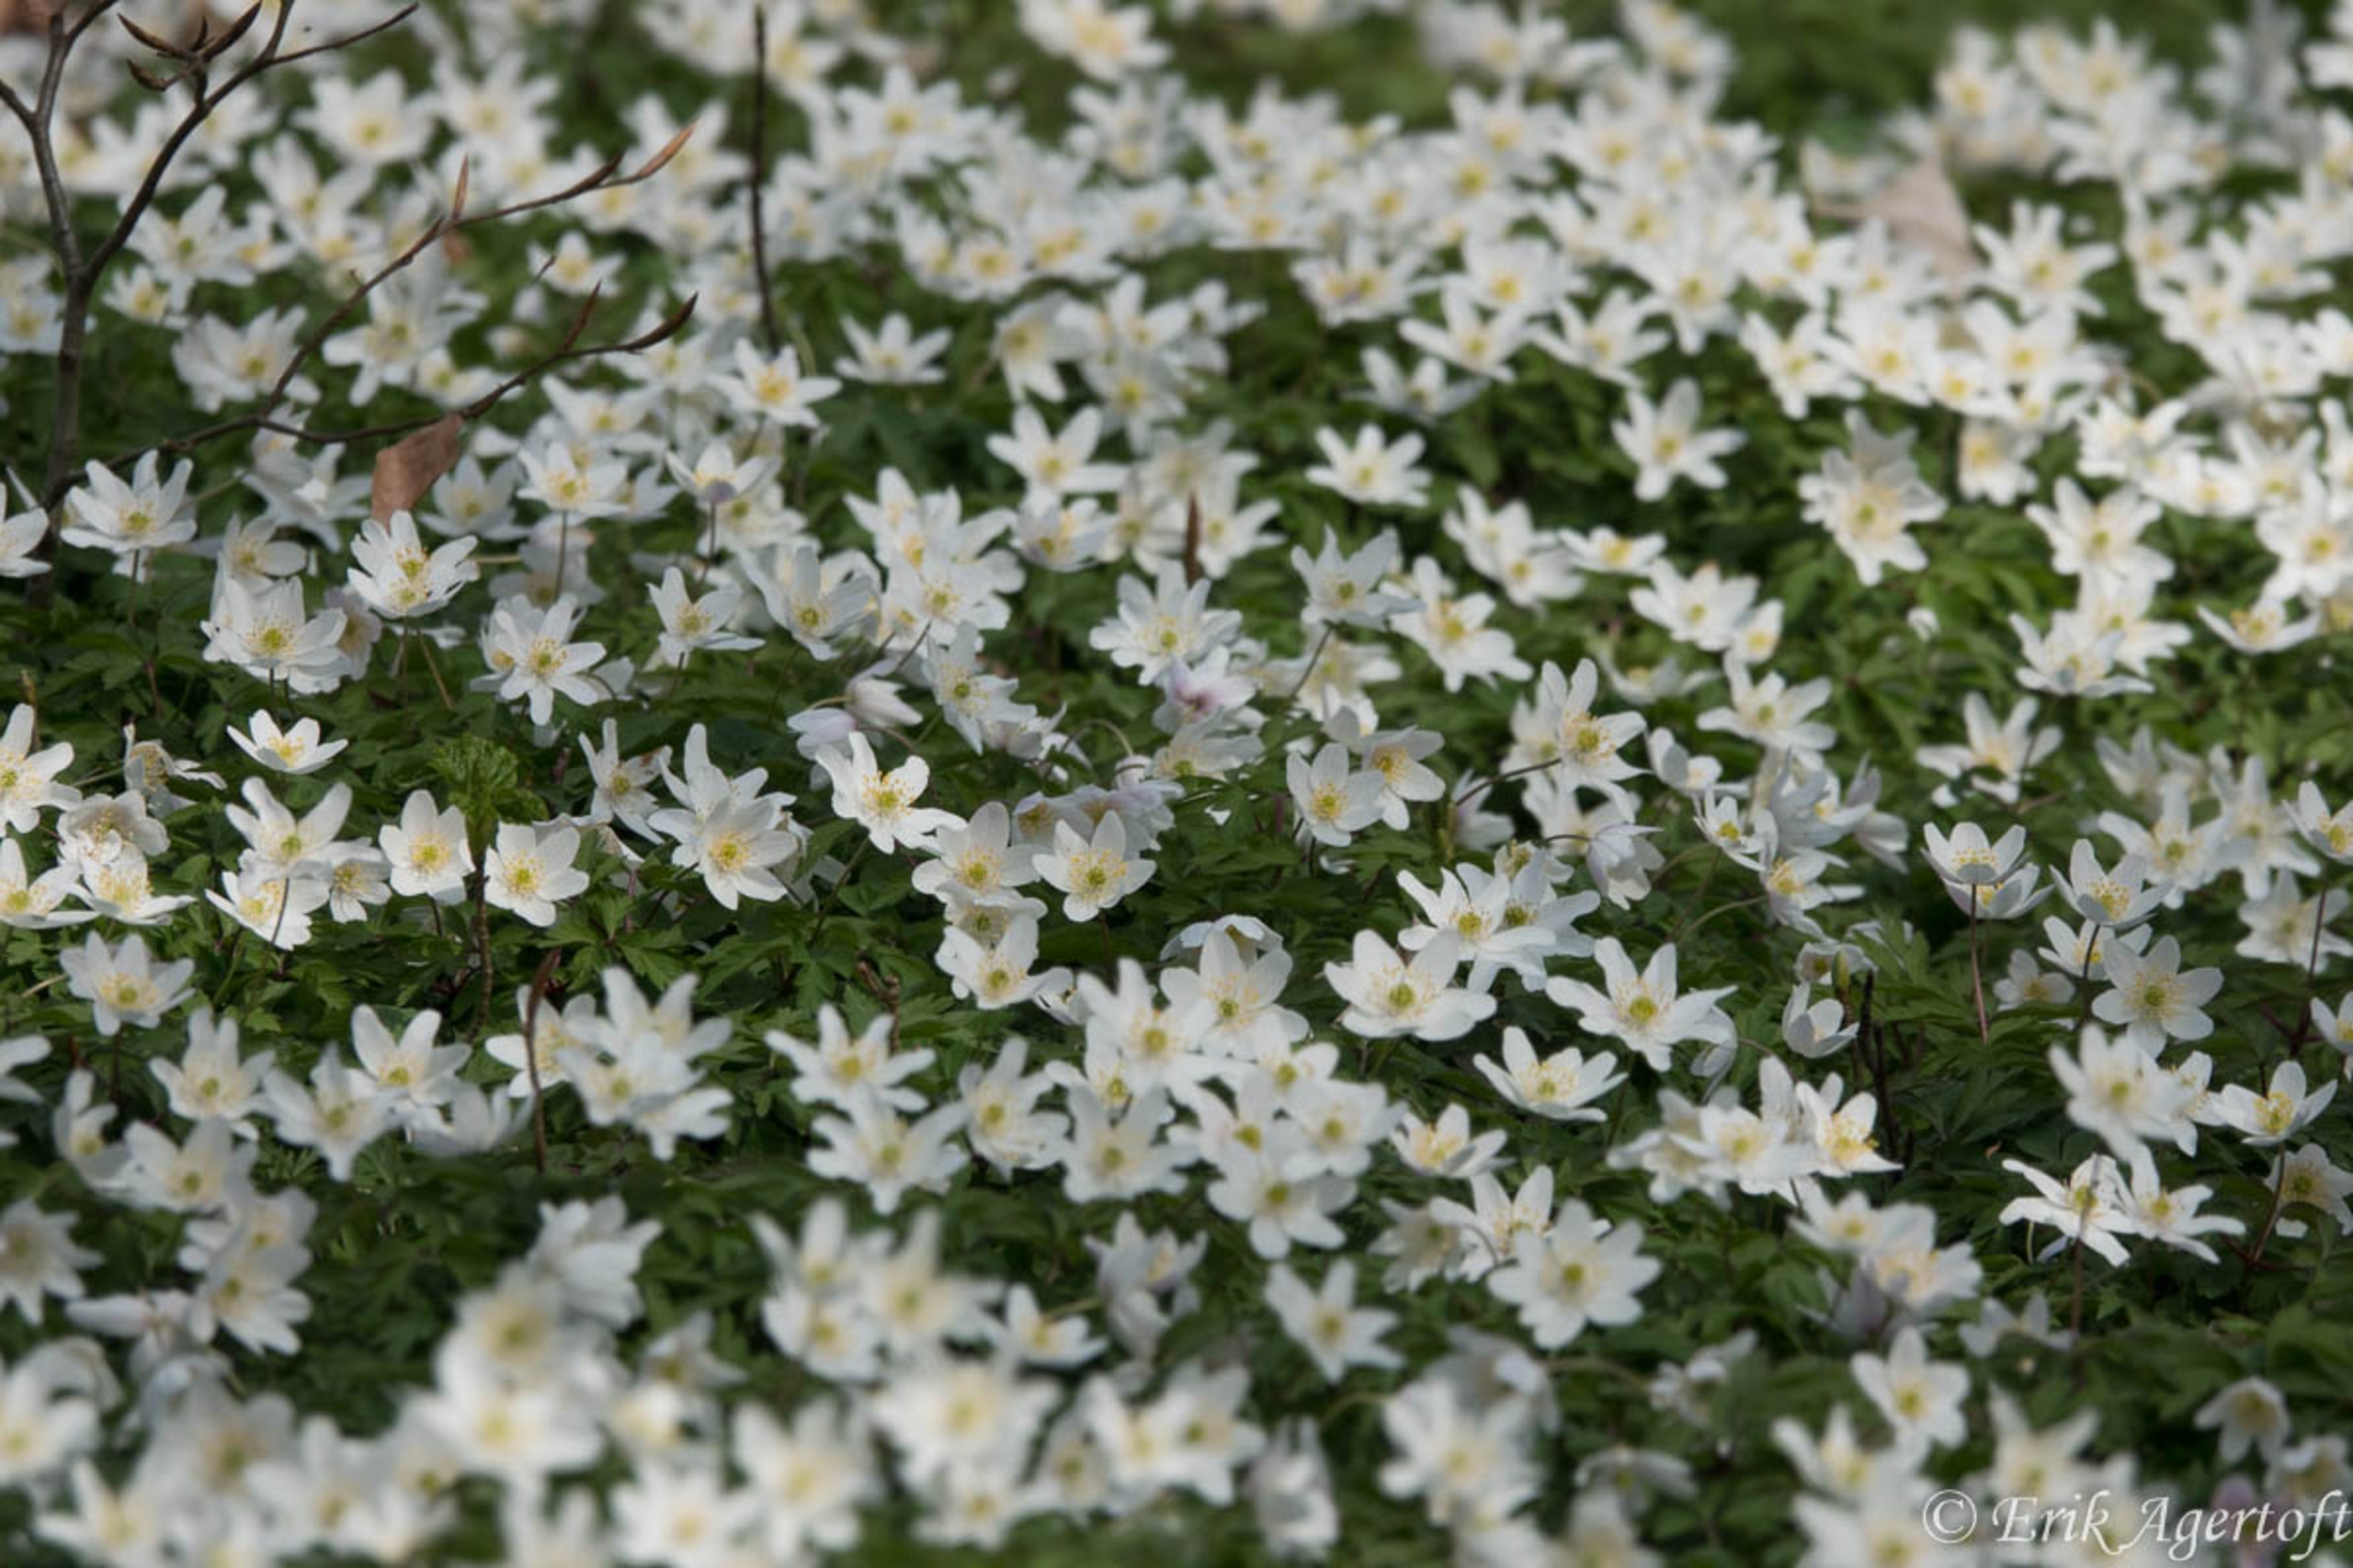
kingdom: Plantae
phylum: Tracheophyta
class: Magnoliopsida
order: Ranunculales
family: Ranunculaceae
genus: Anemone
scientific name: Anemone nemorosa
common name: Hvid anemone
